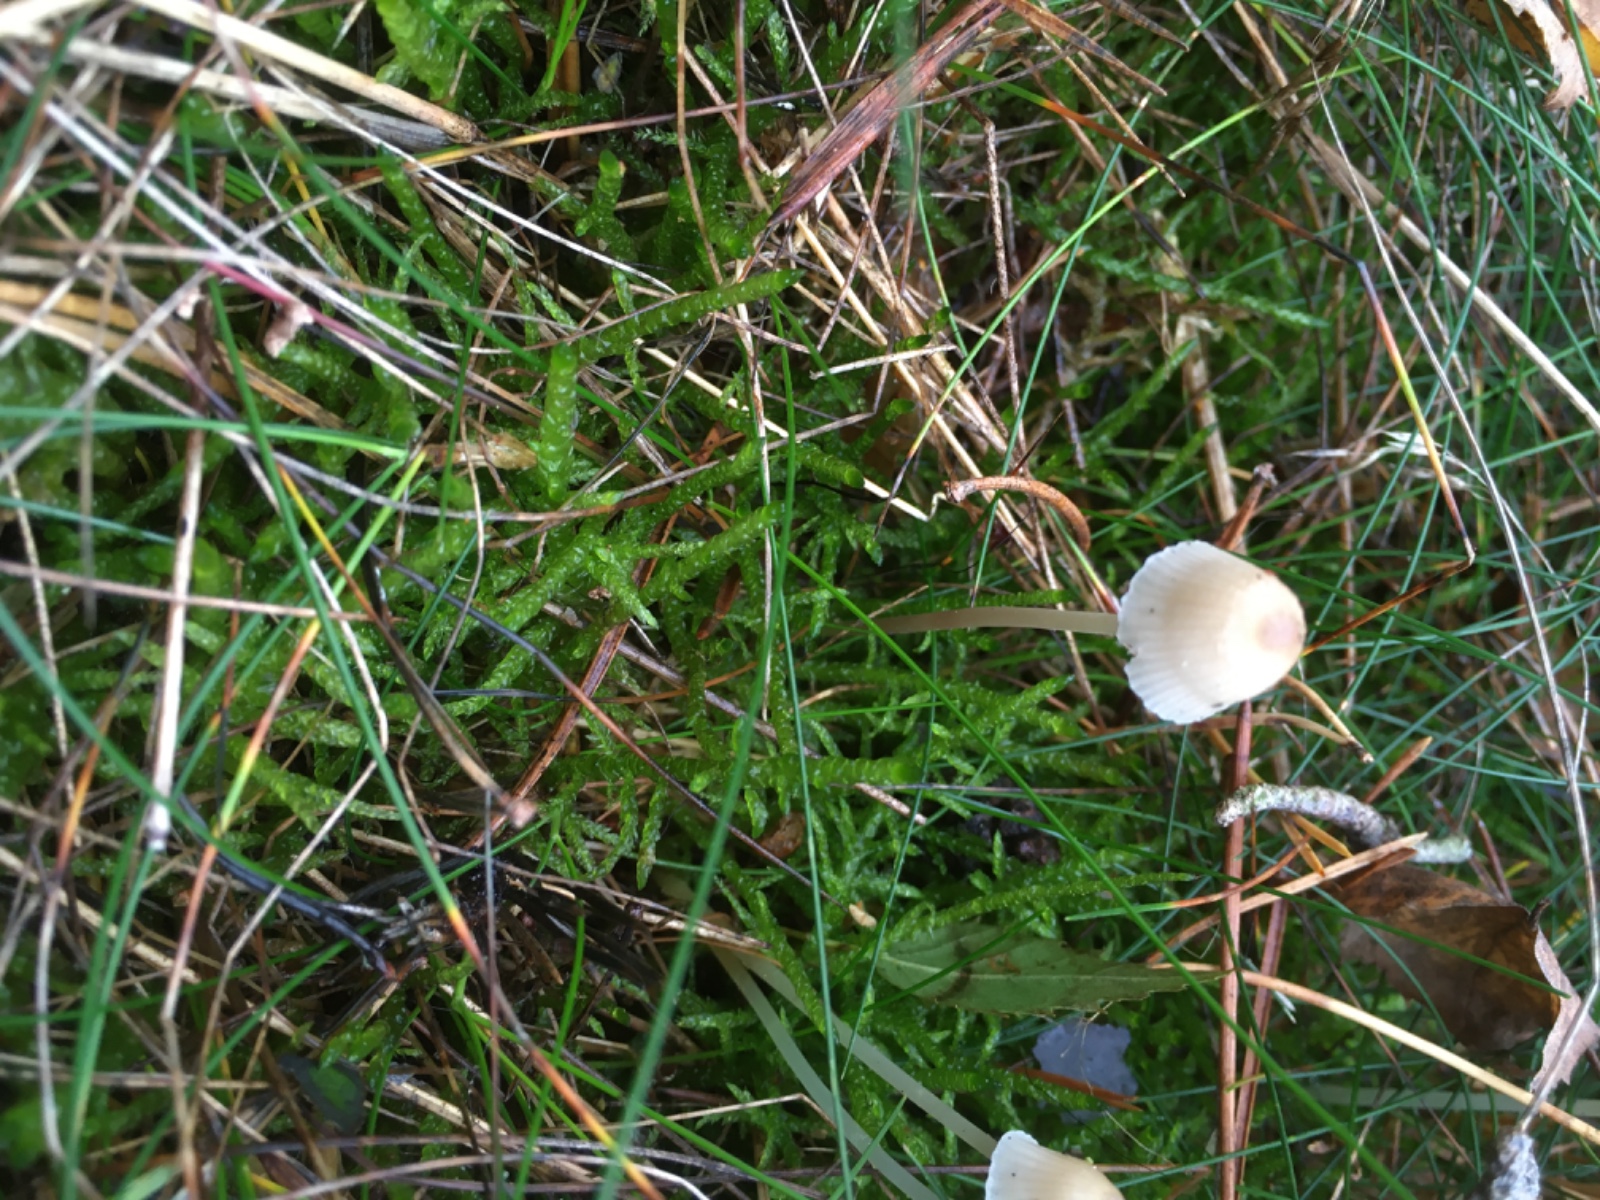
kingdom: Fungi
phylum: Basidiomycota
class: Agaricomycetes
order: Agaricales
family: Mycenaceae
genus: Mycena
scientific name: Mycena epipterygia
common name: gulstokket huesvamp
